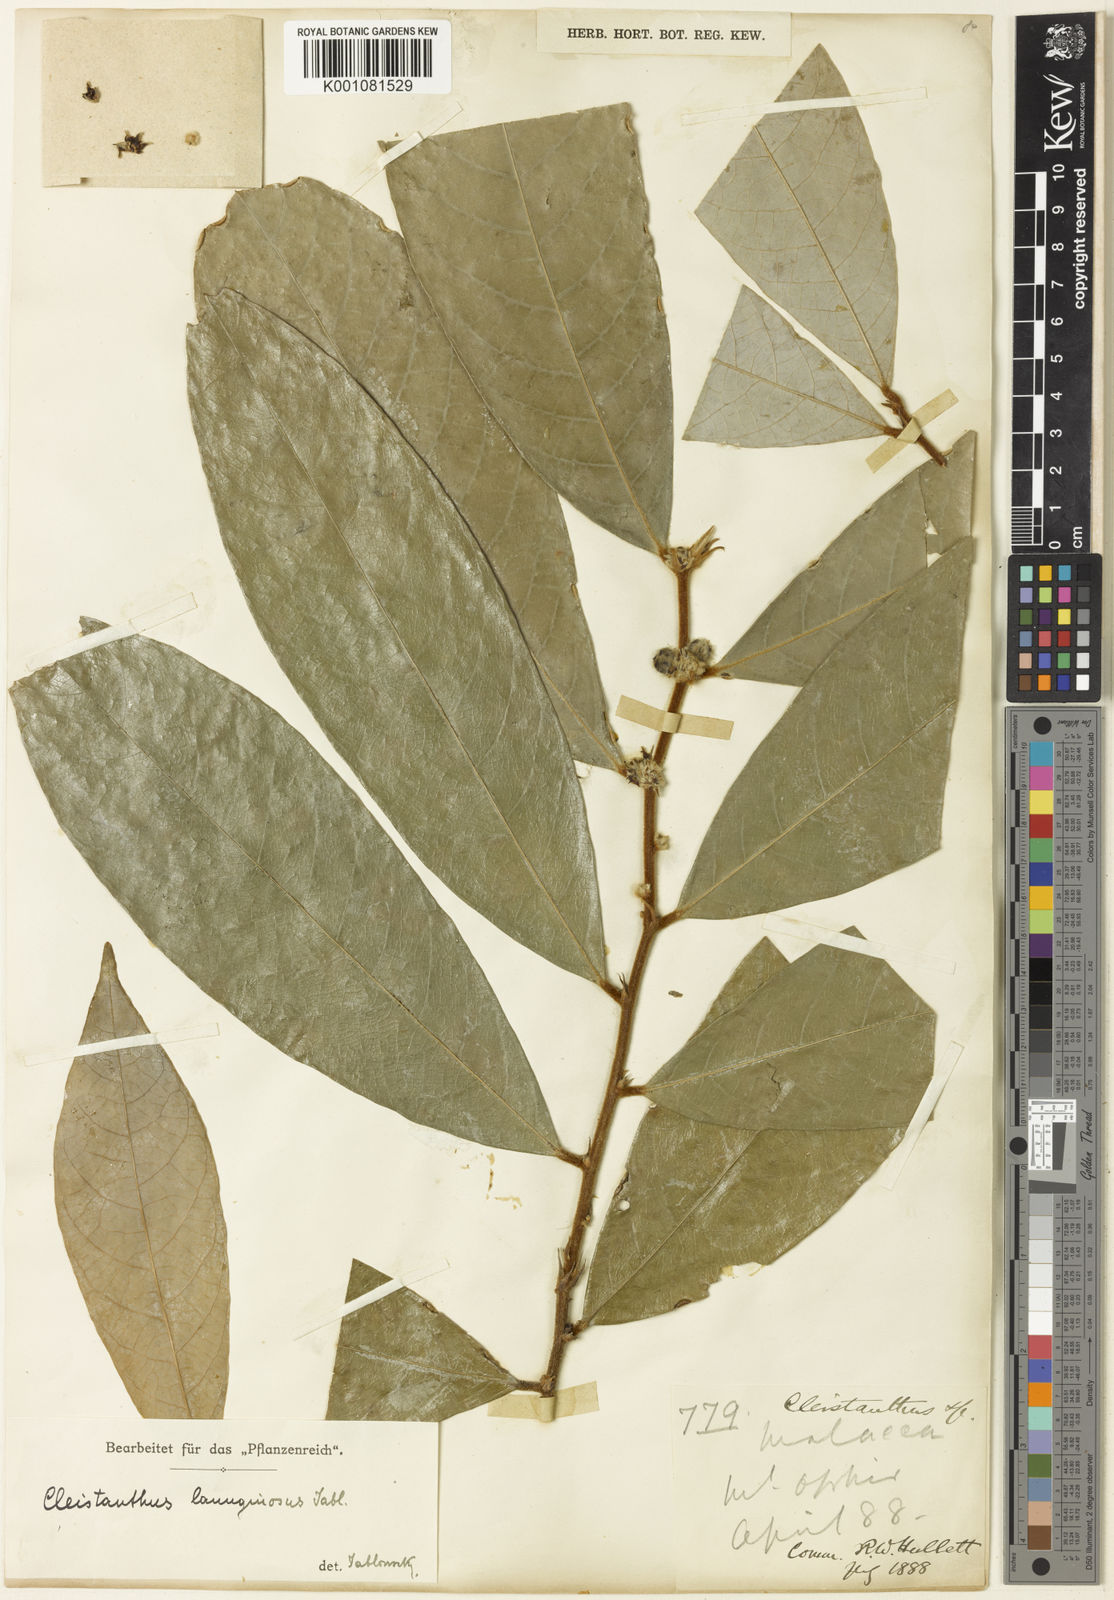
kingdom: Plantae
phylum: Tracheophyta
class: Magnoliopsida
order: Malpighiales
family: Phyllanthaceae
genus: Cleistanthus
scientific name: Cleistanthus lanuginosus
